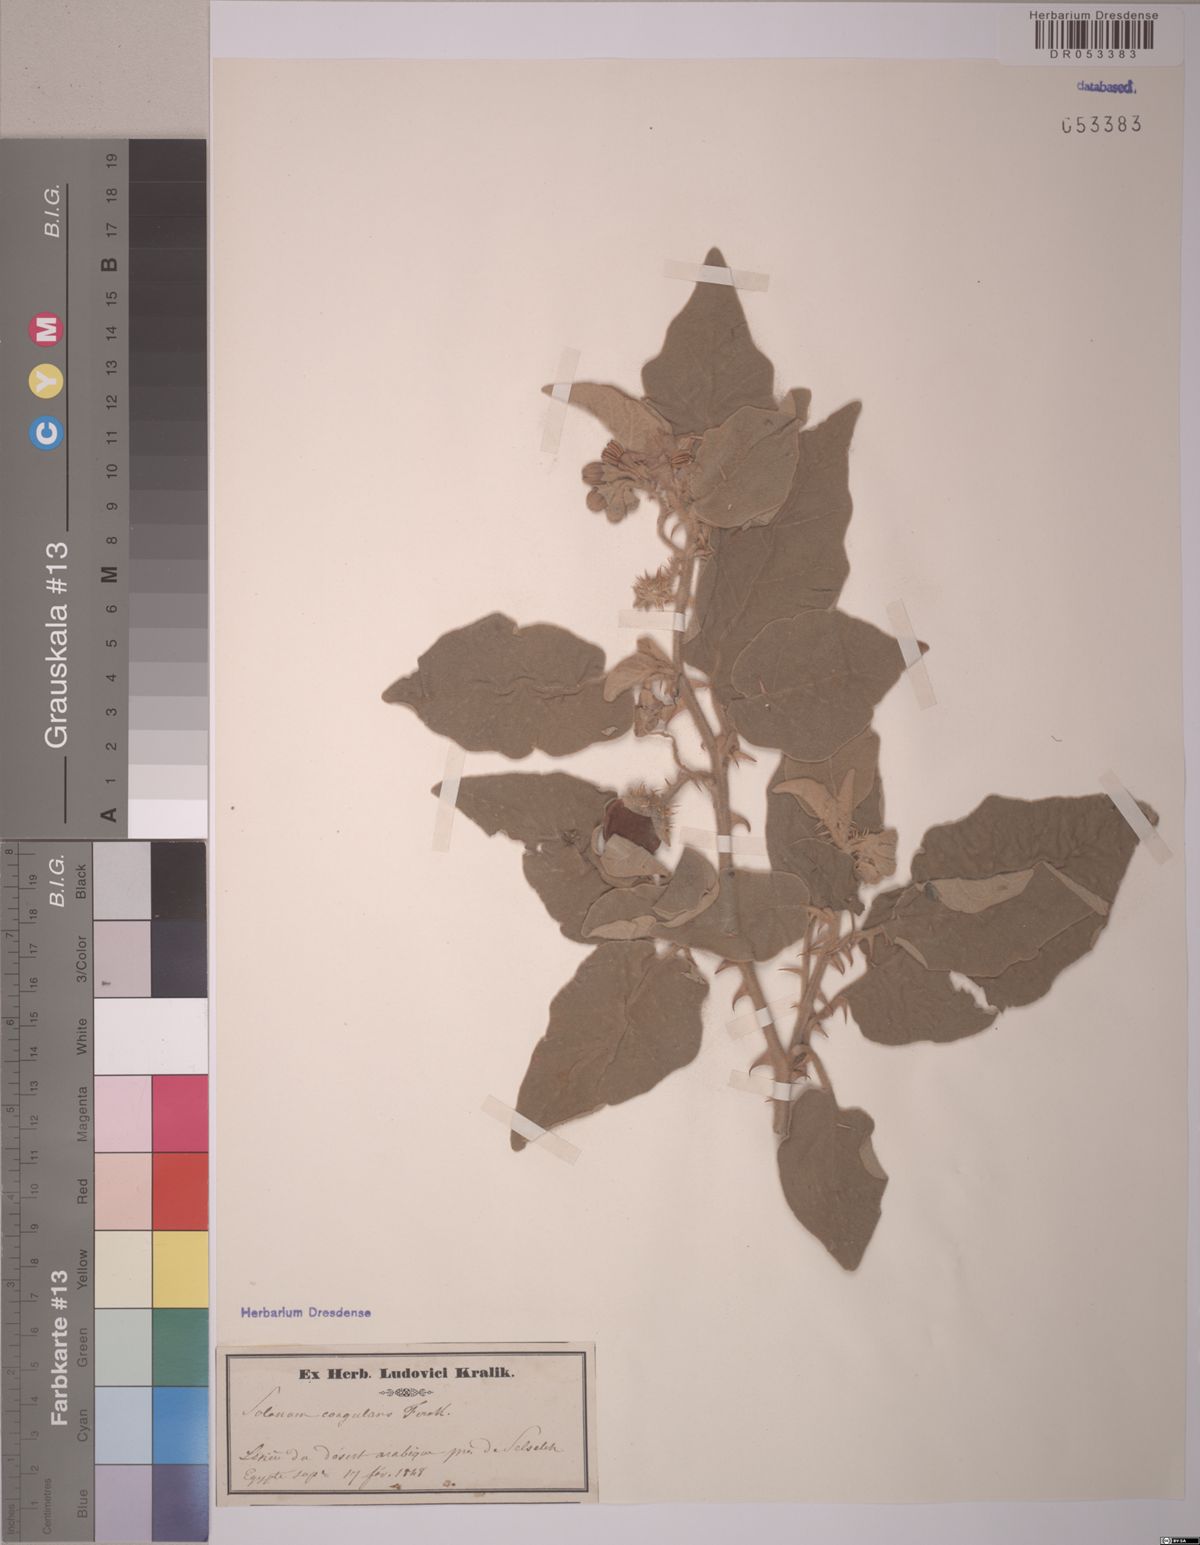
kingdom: Plantae
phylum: Tracheophyta
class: Magnoliopsida
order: Solanales
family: Solanaceae
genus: Solanum
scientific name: Solanum coagulans
